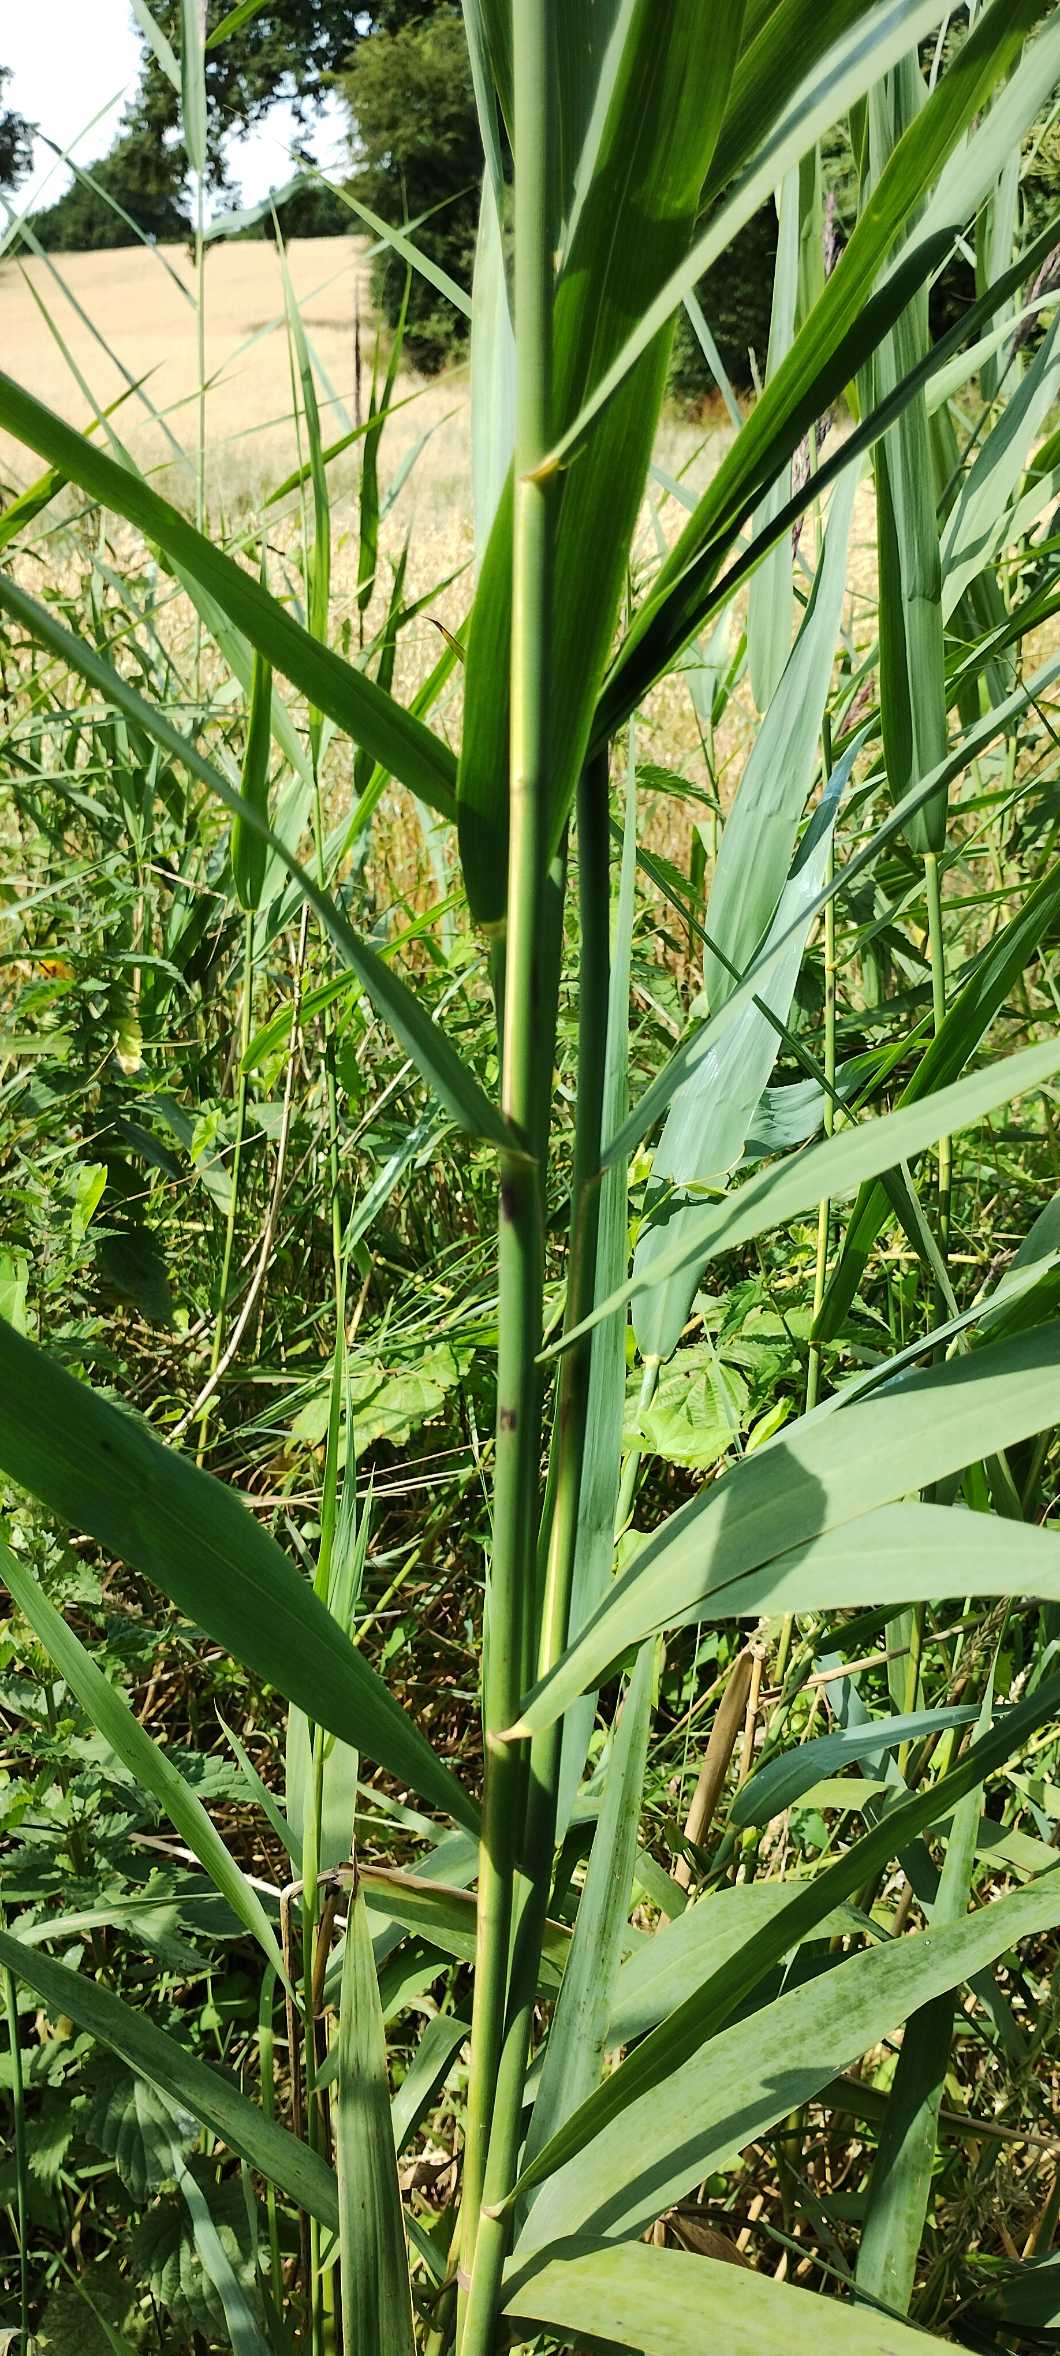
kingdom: Plantae
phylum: Tracheophyta
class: Liliopsida
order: Poales
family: Poaceae
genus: Phragmites
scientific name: Phragmites australis
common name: Tagrør
